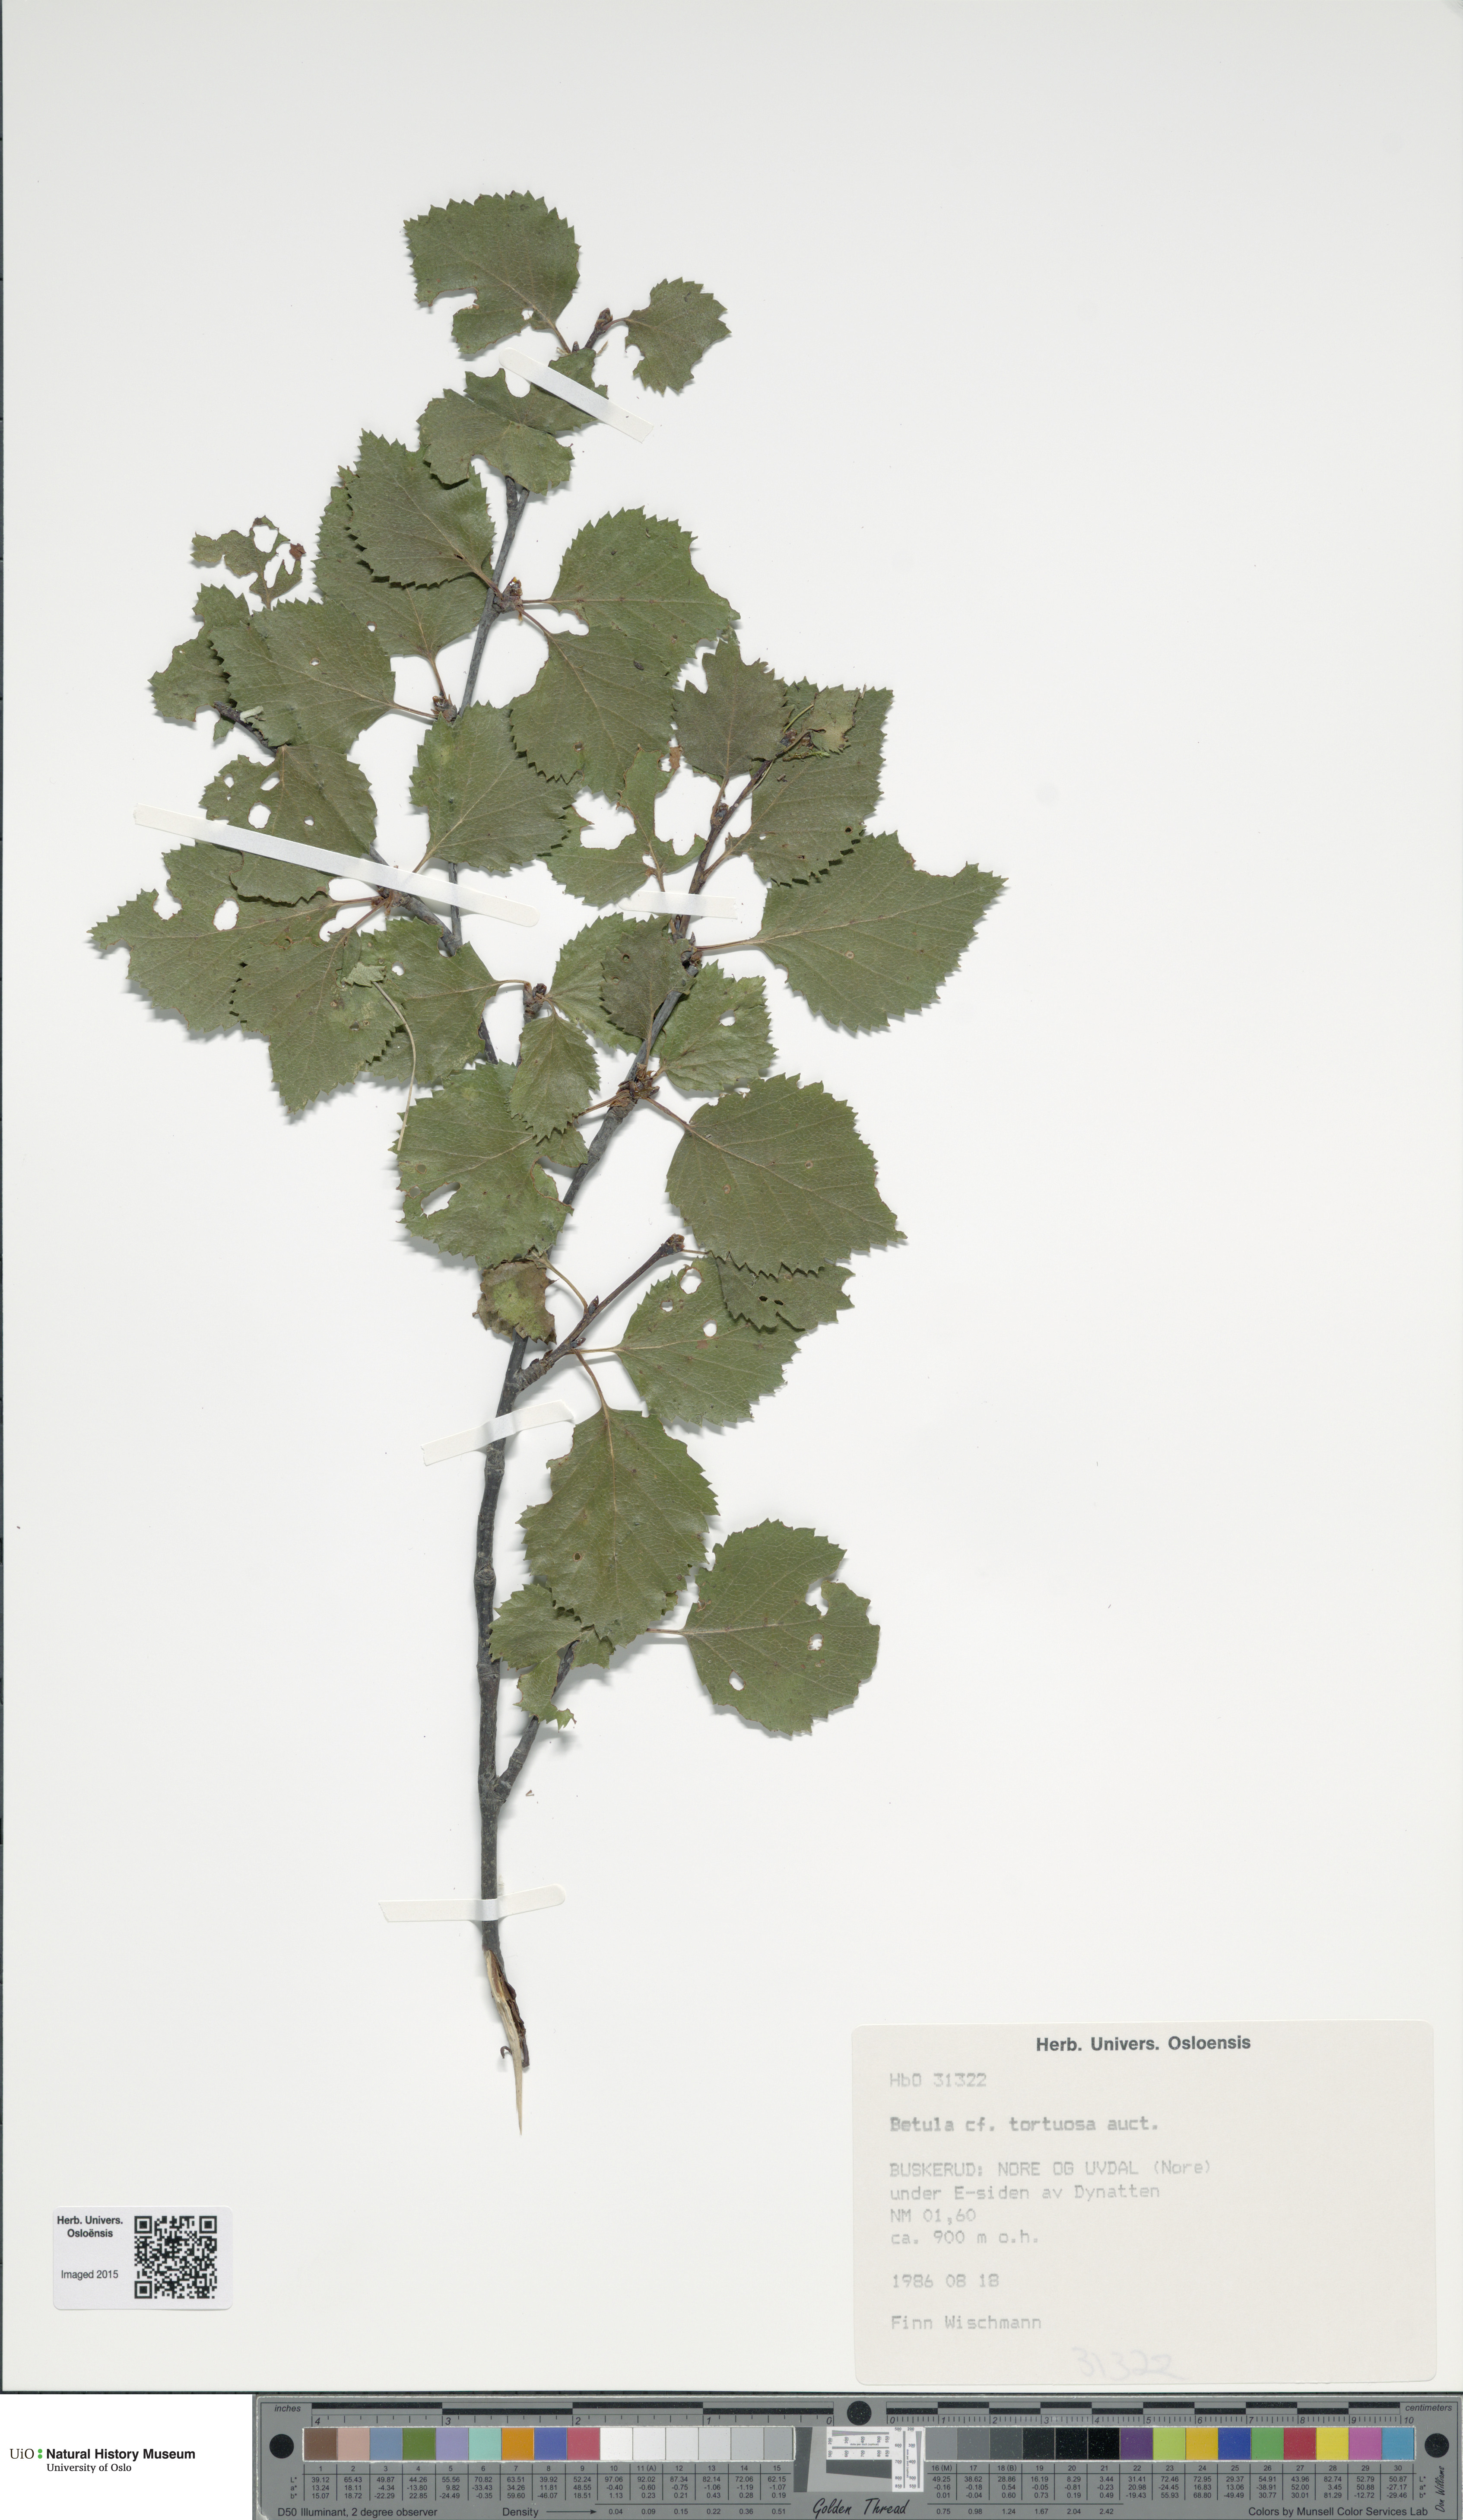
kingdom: Plantae
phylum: Tracheophyta
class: Magnoliopsida
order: Fagales
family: Betulaceae
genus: Betula
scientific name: Betula pubescens
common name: Downy birch
